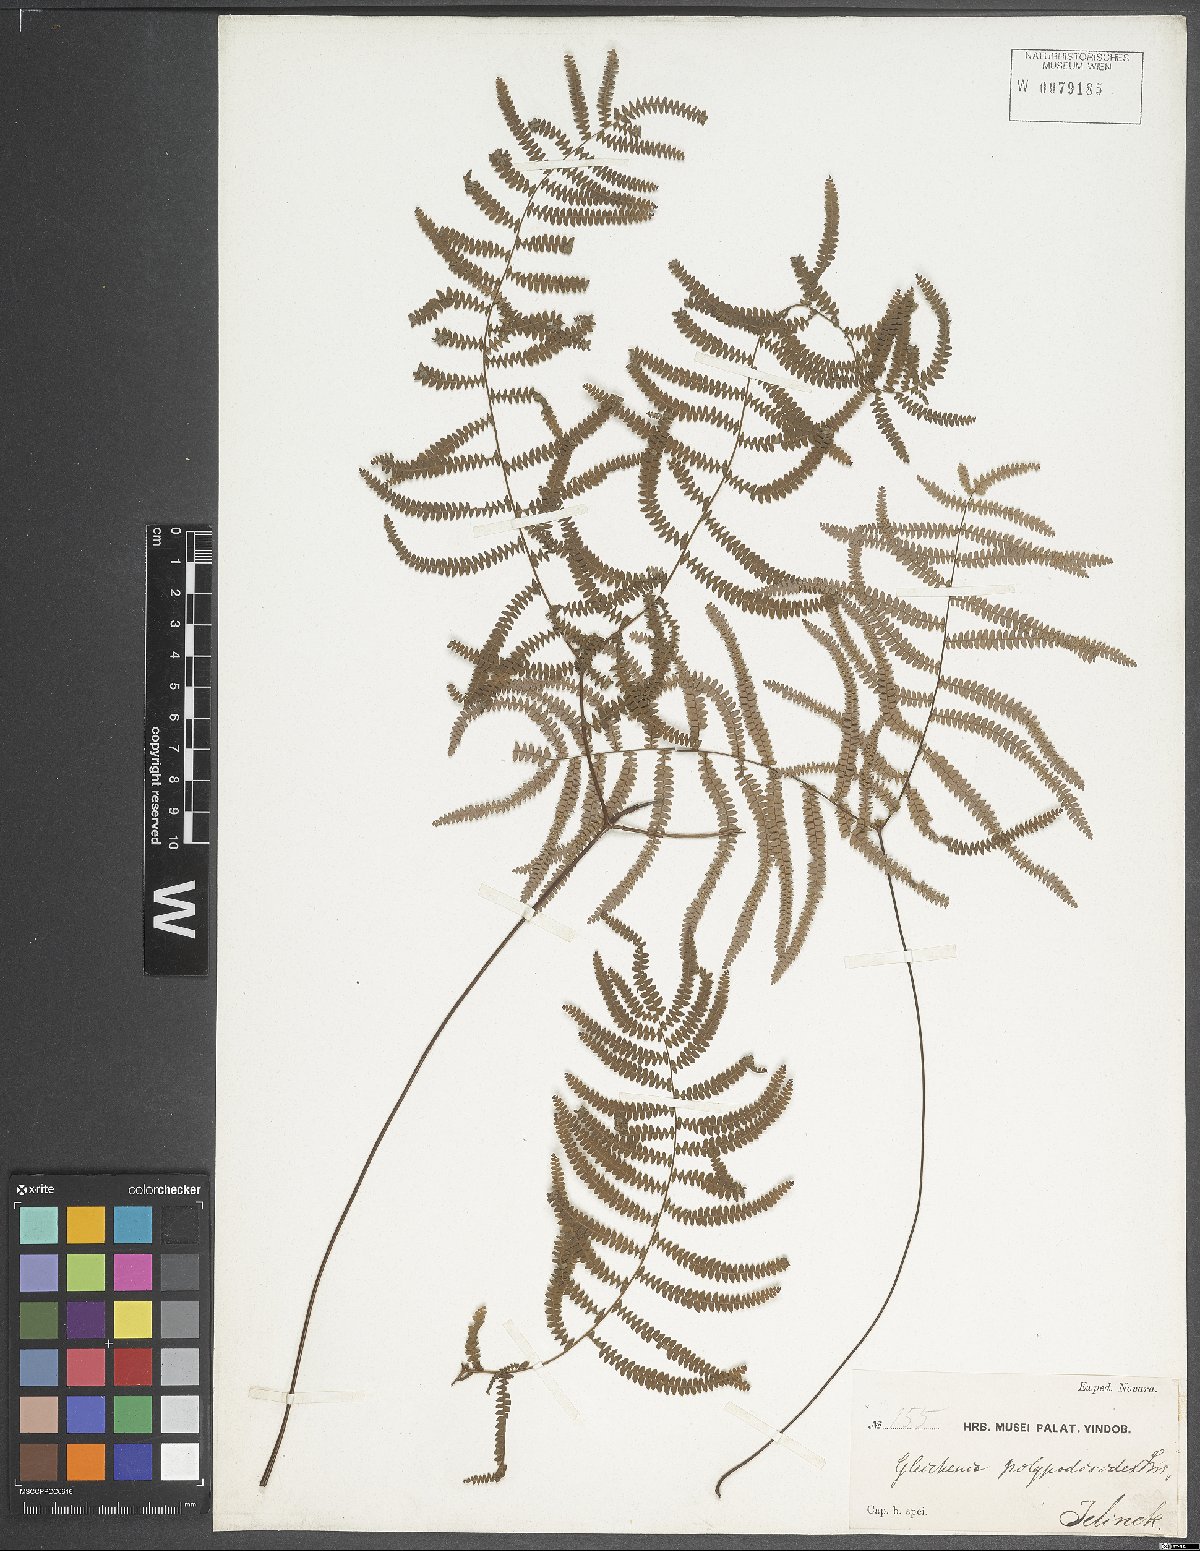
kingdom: Plantae
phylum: Tracheophyta
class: Polypodiopsida
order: Gleicheniales
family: Gleicheniaceae
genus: Gleichenia
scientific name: Gleichenia polypodioides
